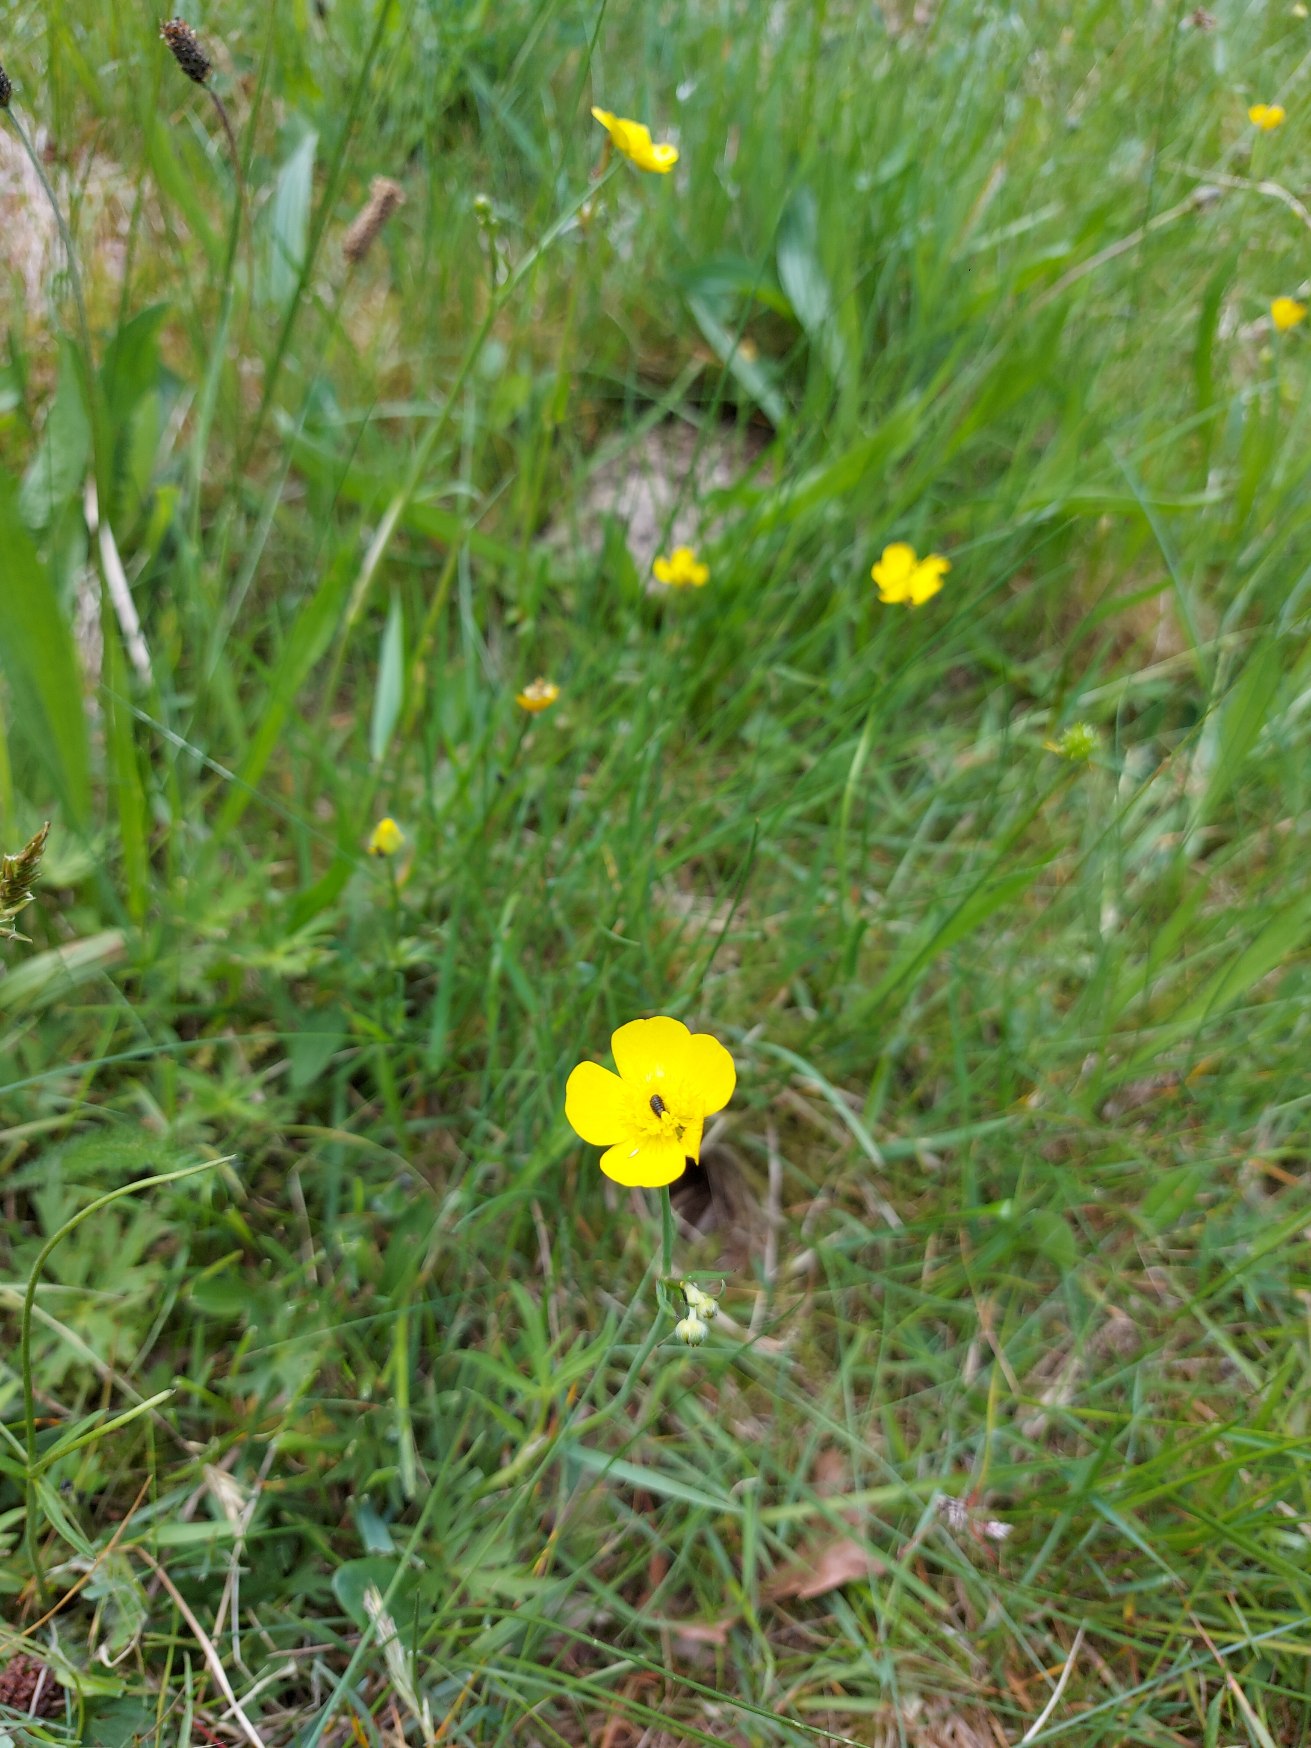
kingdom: Plantae
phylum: Tracheophyta
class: Magnoliopsida
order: Ranunculales
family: Ranunculaceae
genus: Ranunculus
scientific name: Ranunculus bulbosus
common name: Knold-ranunkel
